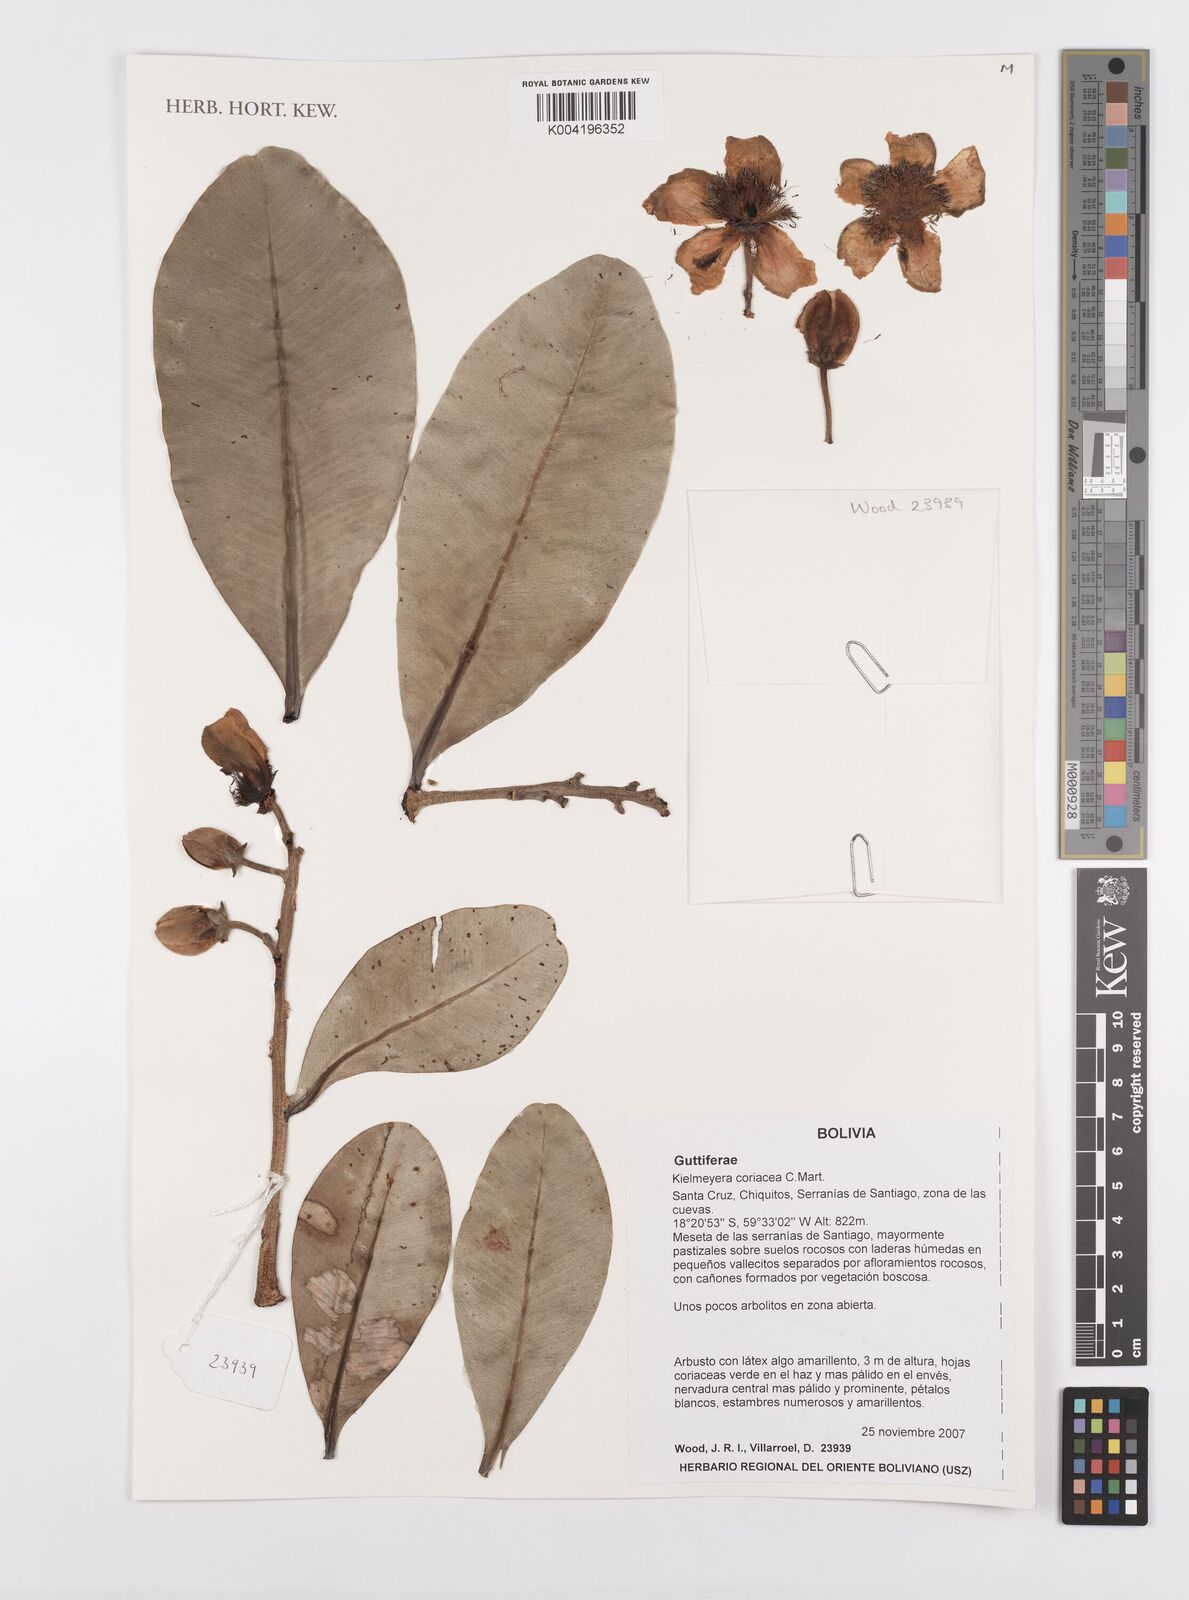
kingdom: Plantae
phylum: Tracheophyta
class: Magnoliopsida
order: Malpighiales
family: Calophyllaceae
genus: Kielmeyera
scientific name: Kielmeyera coriacea
